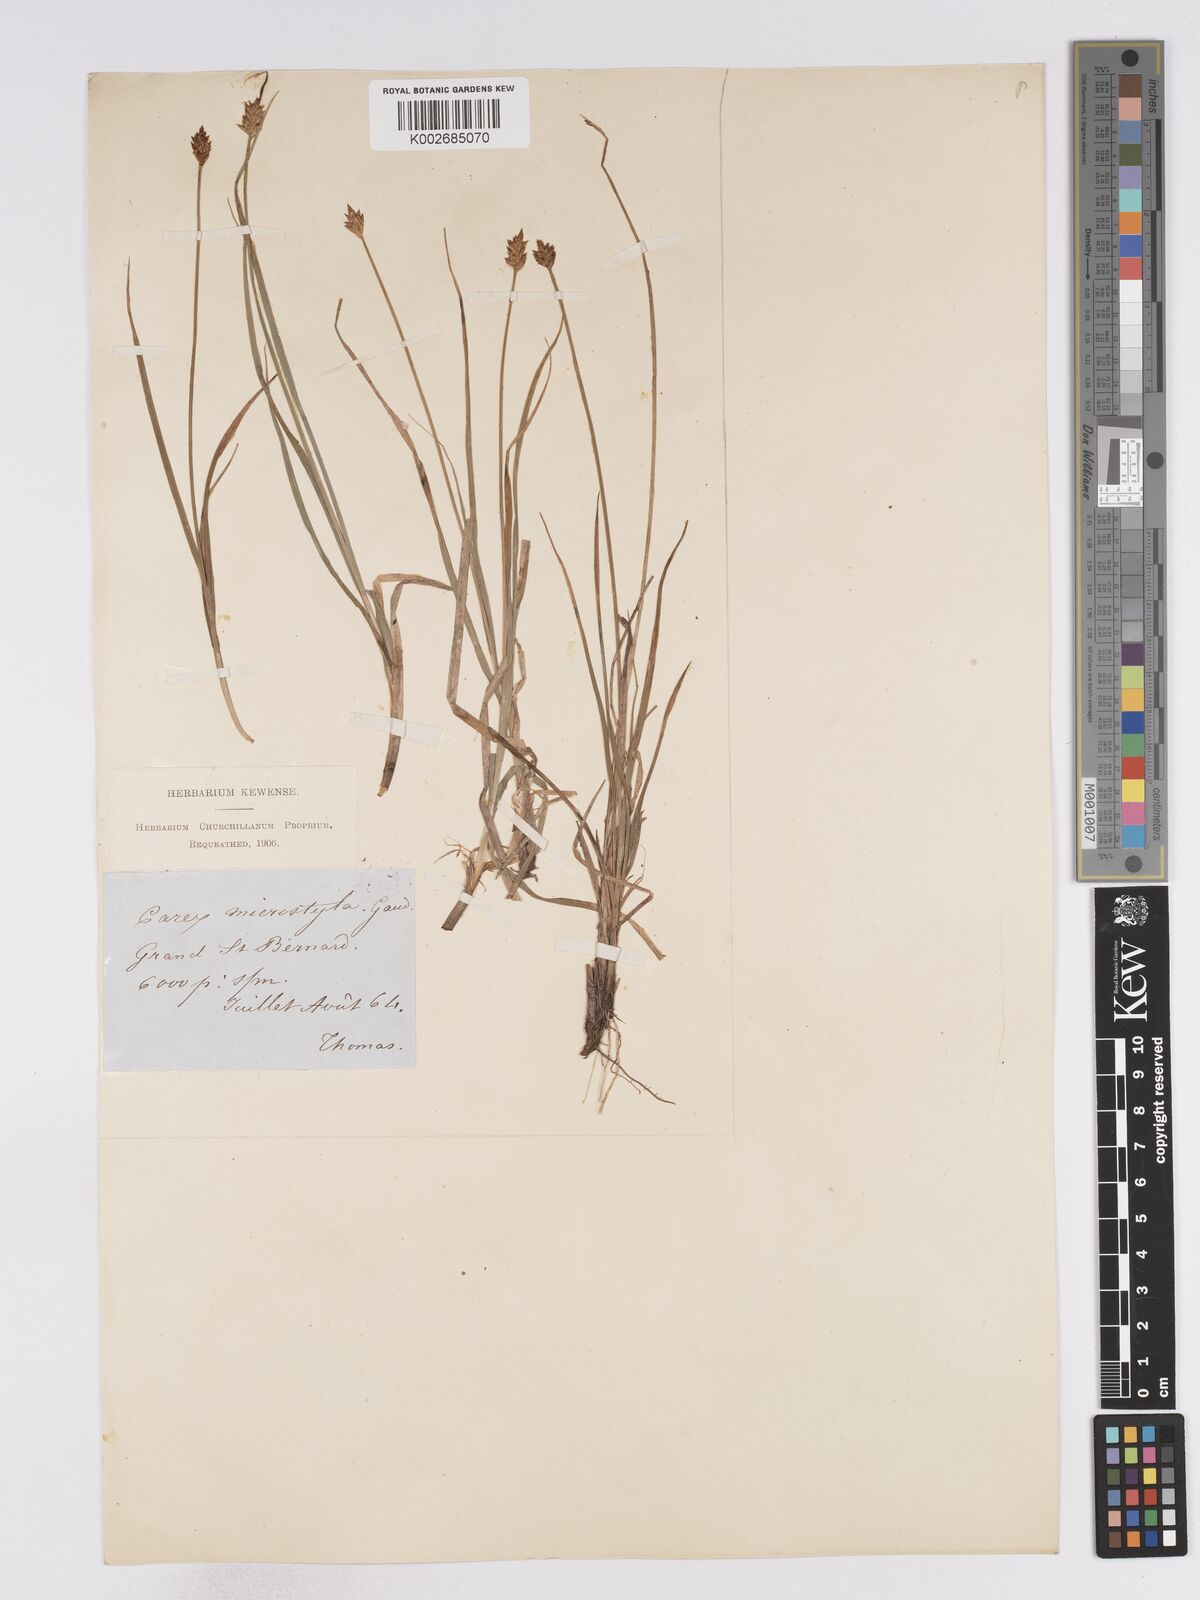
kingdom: Plantae
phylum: Tracheophyta
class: Liliopsida
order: Poales
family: Cyperaceae
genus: Carex
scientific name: Carex microstyla
